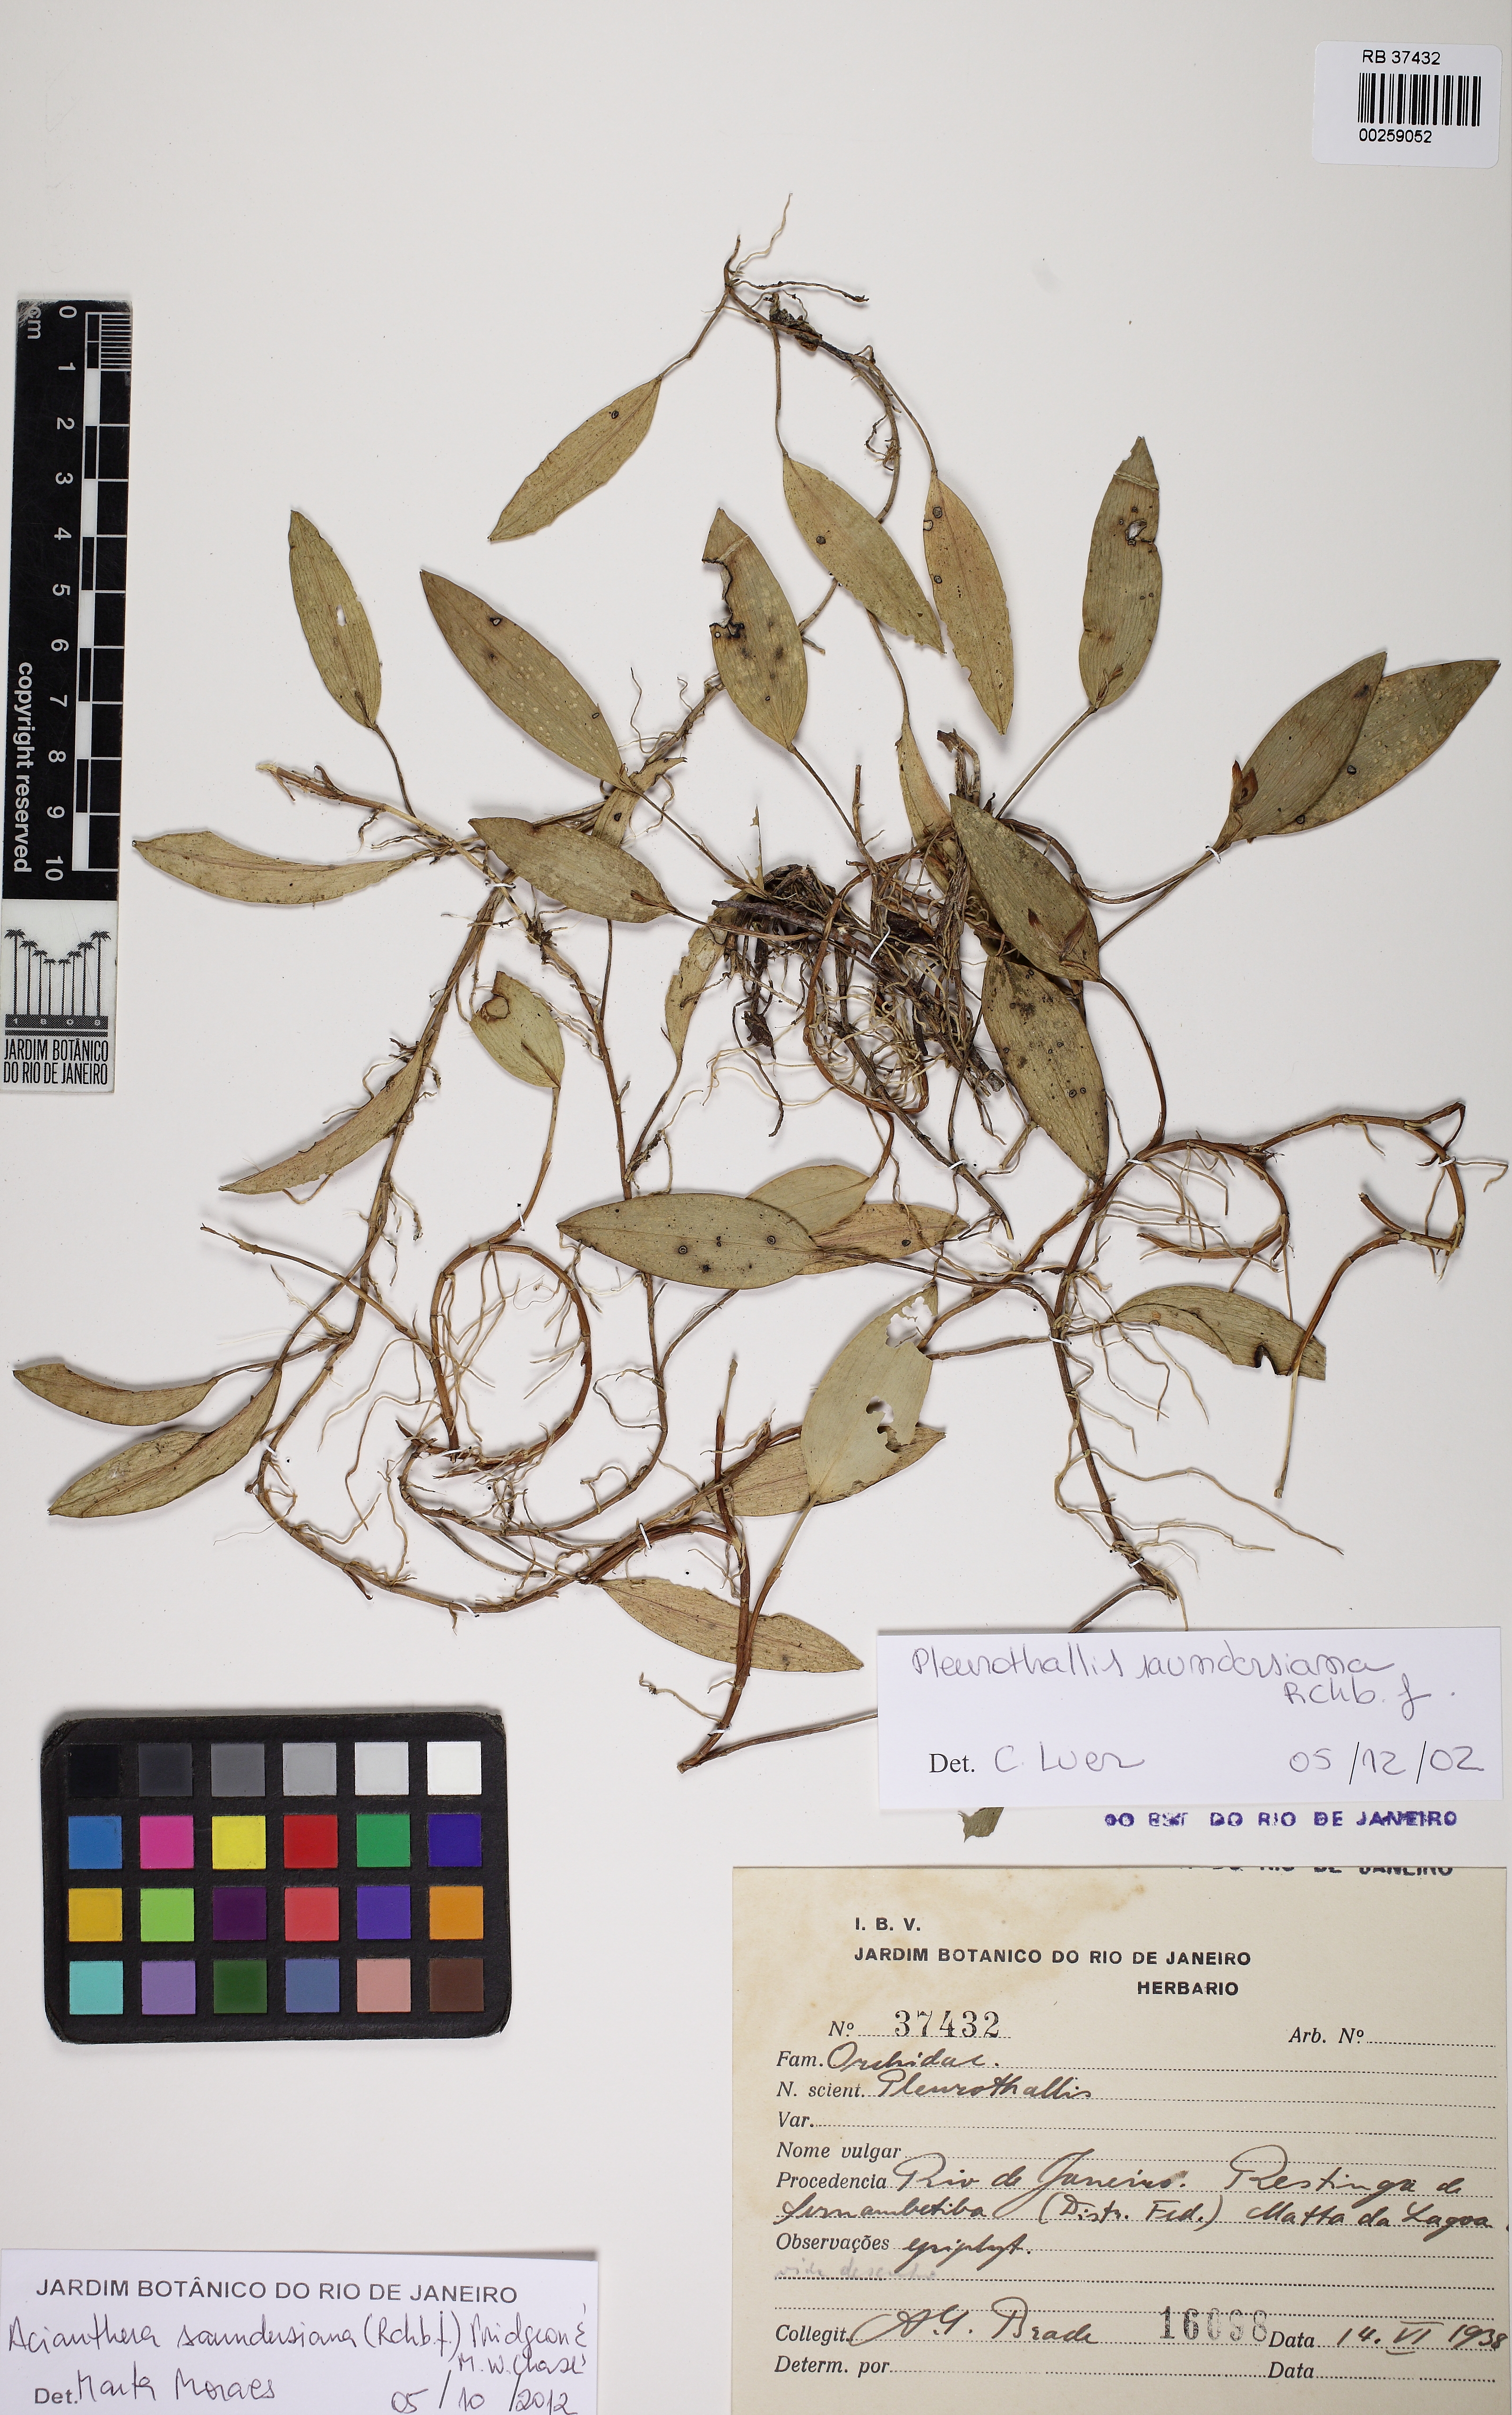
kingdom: Plantae
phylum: Tracheophyta
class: Liliopsida
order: Asparagales
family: Orchidaceae
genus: Acianthera
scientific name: Acianthera saundersiana
